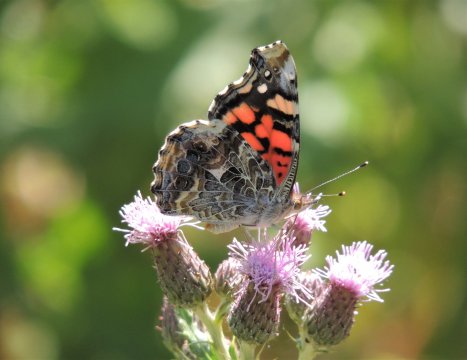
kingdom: Animalia
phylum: Arthropoda
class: Insecta
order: Lepidoptera
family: Nymphalidae
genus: Vanessa
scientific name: Vanessa annabella
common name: West Coast Lady
